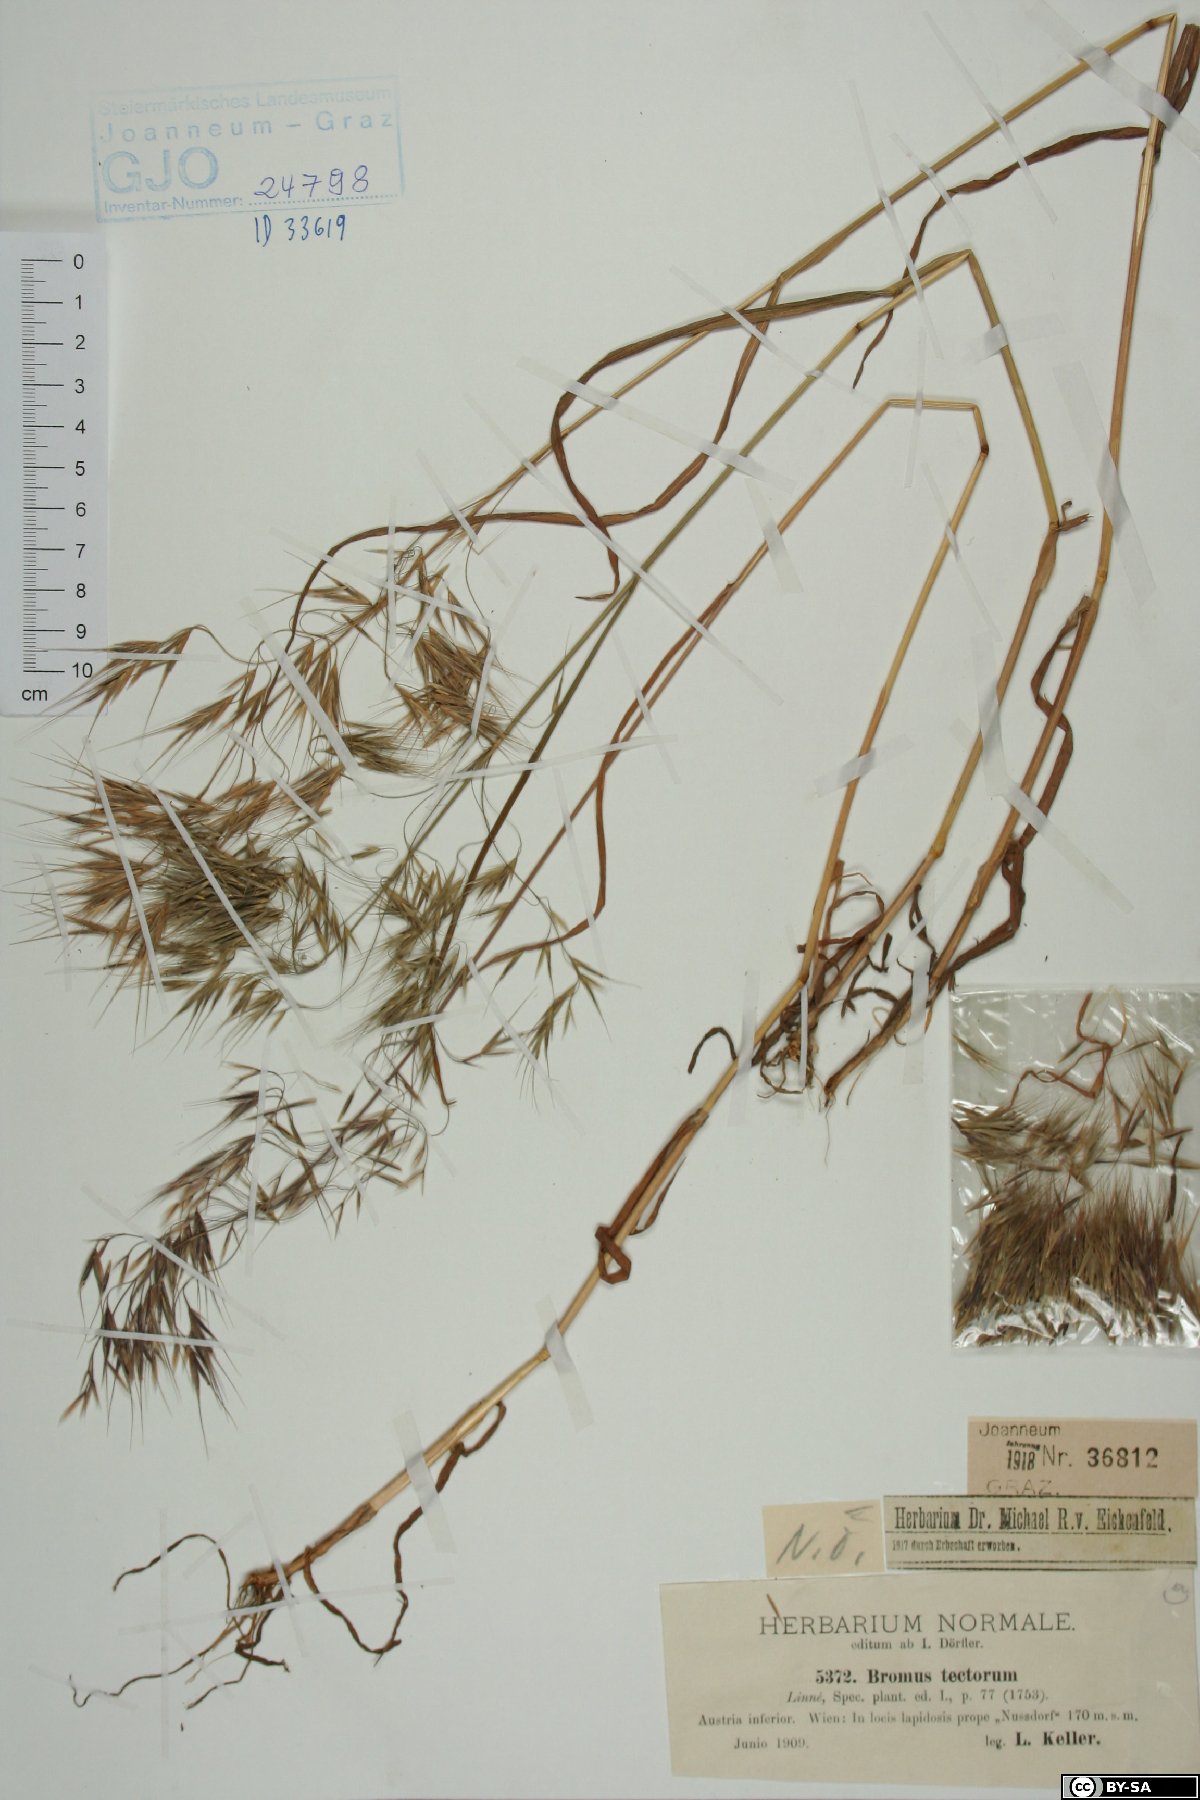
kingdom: Plantae
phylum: Tracheophyta
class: Liliopsida
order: Poales
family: Poaceae
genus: Bromus
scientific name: Bromus tectorum
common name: Cheatgrass
